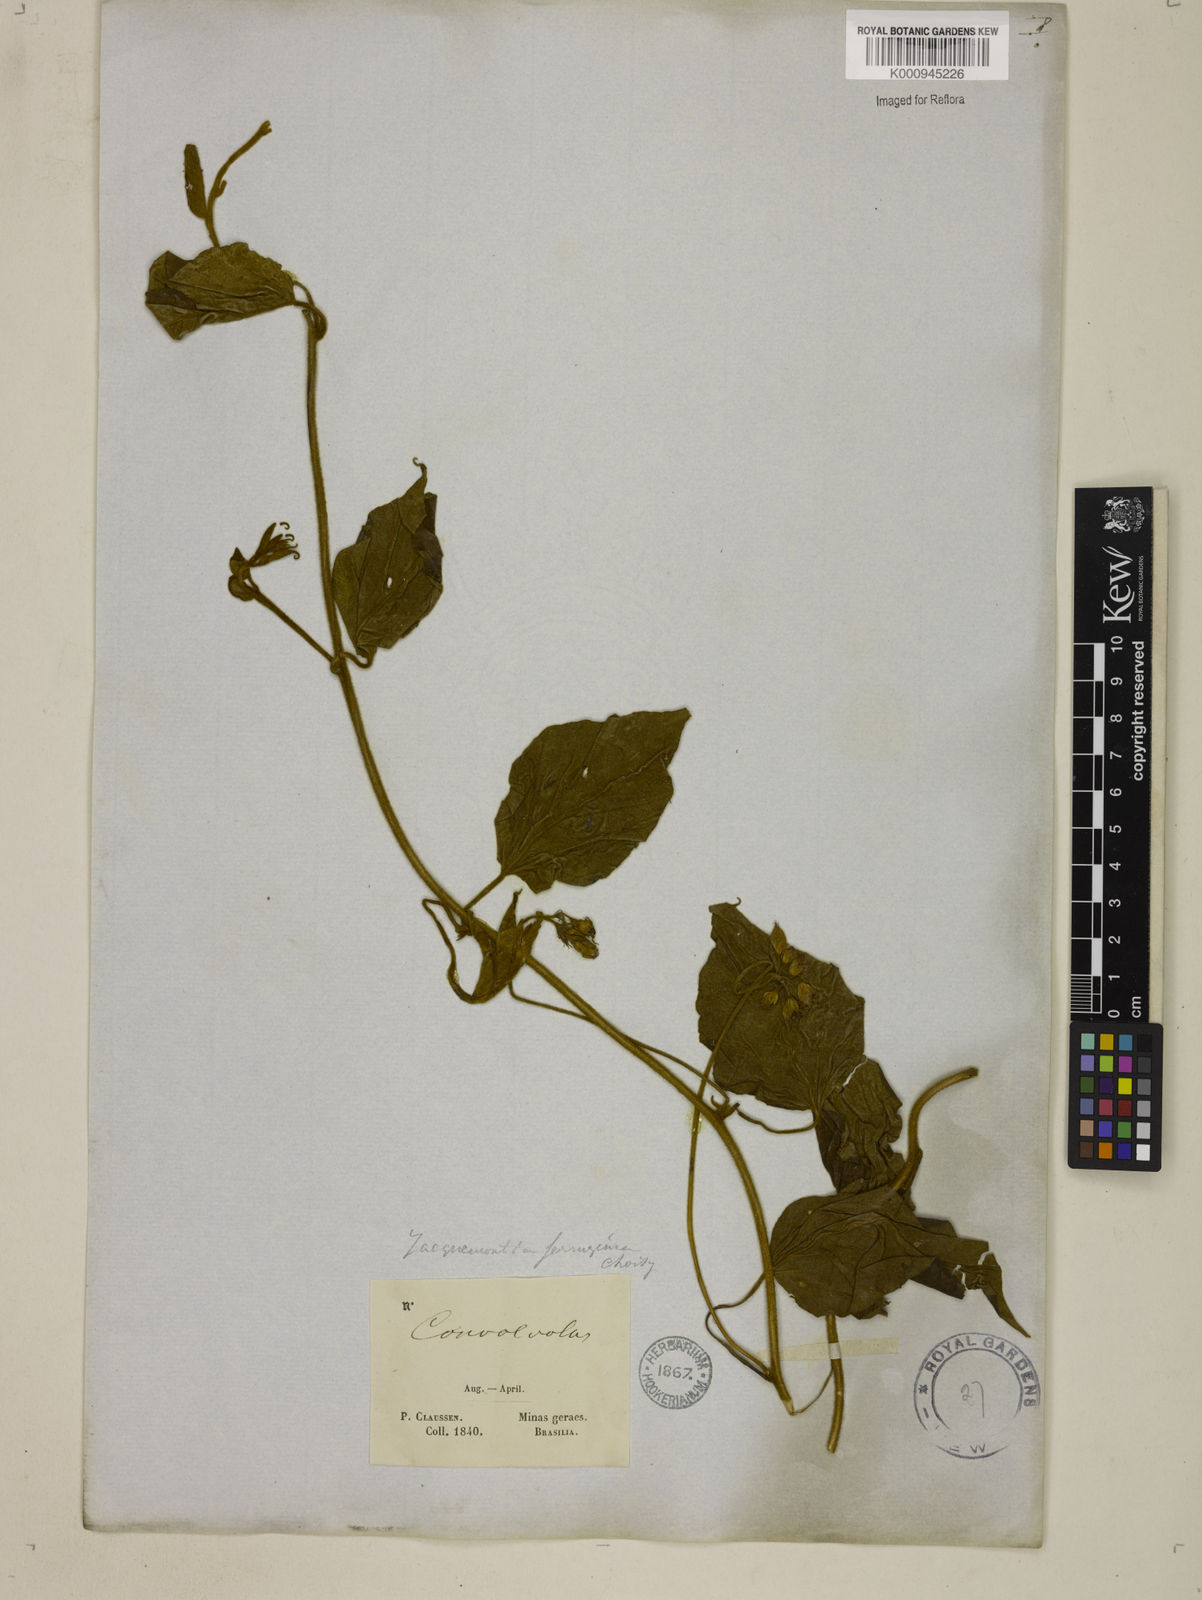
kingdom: Plantae
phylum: Tracheophyta
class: Magnoliopsida
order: Solanales
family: Convolvulaceae
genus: Jacquemontia
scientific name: Jacquemontia cumanensis
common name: Thicket clustervine
